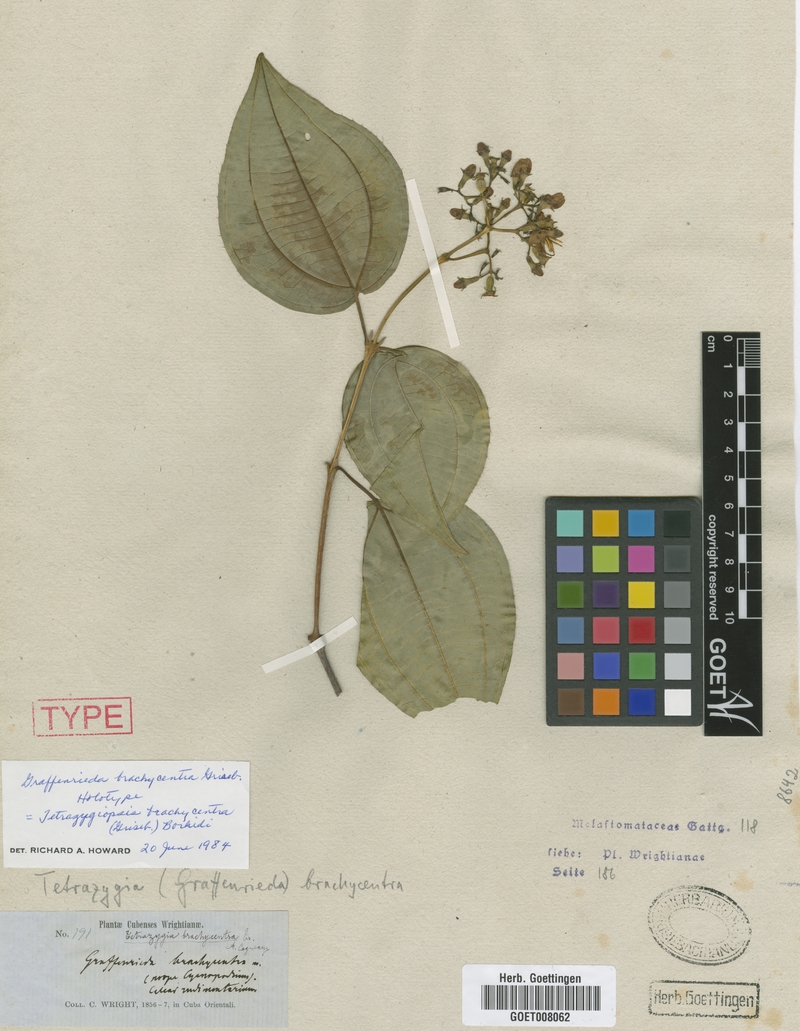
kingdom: Plantae
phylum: Tracheophyta
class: Magnoliopsida
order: Myrtales
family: Melastomataceae
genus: Miconia
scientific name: Miconia brachycentra
